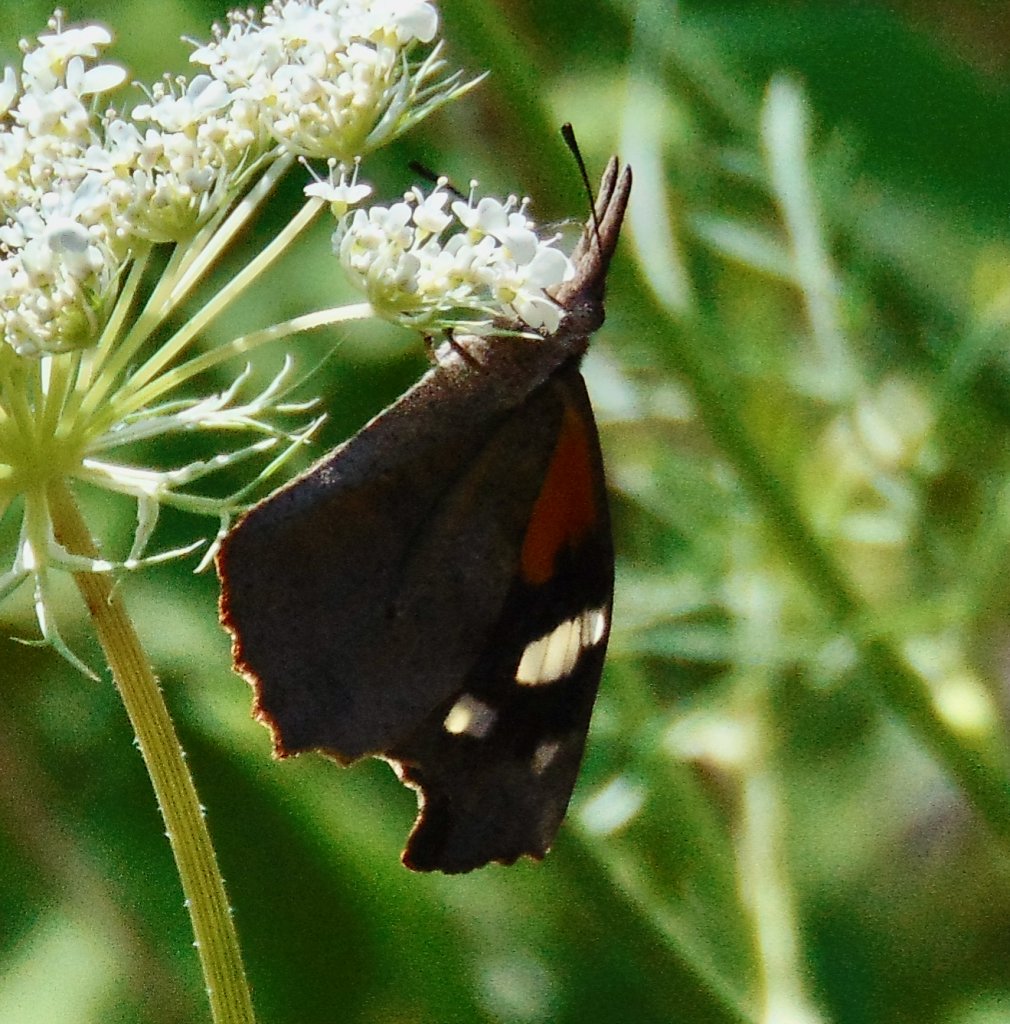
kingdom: Animalia
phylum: Arthropoda
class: Insecta
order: Lepidoptera
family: Nymphalidae
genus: Libytheana
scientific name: Libytheana carinenta
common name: American Snout
